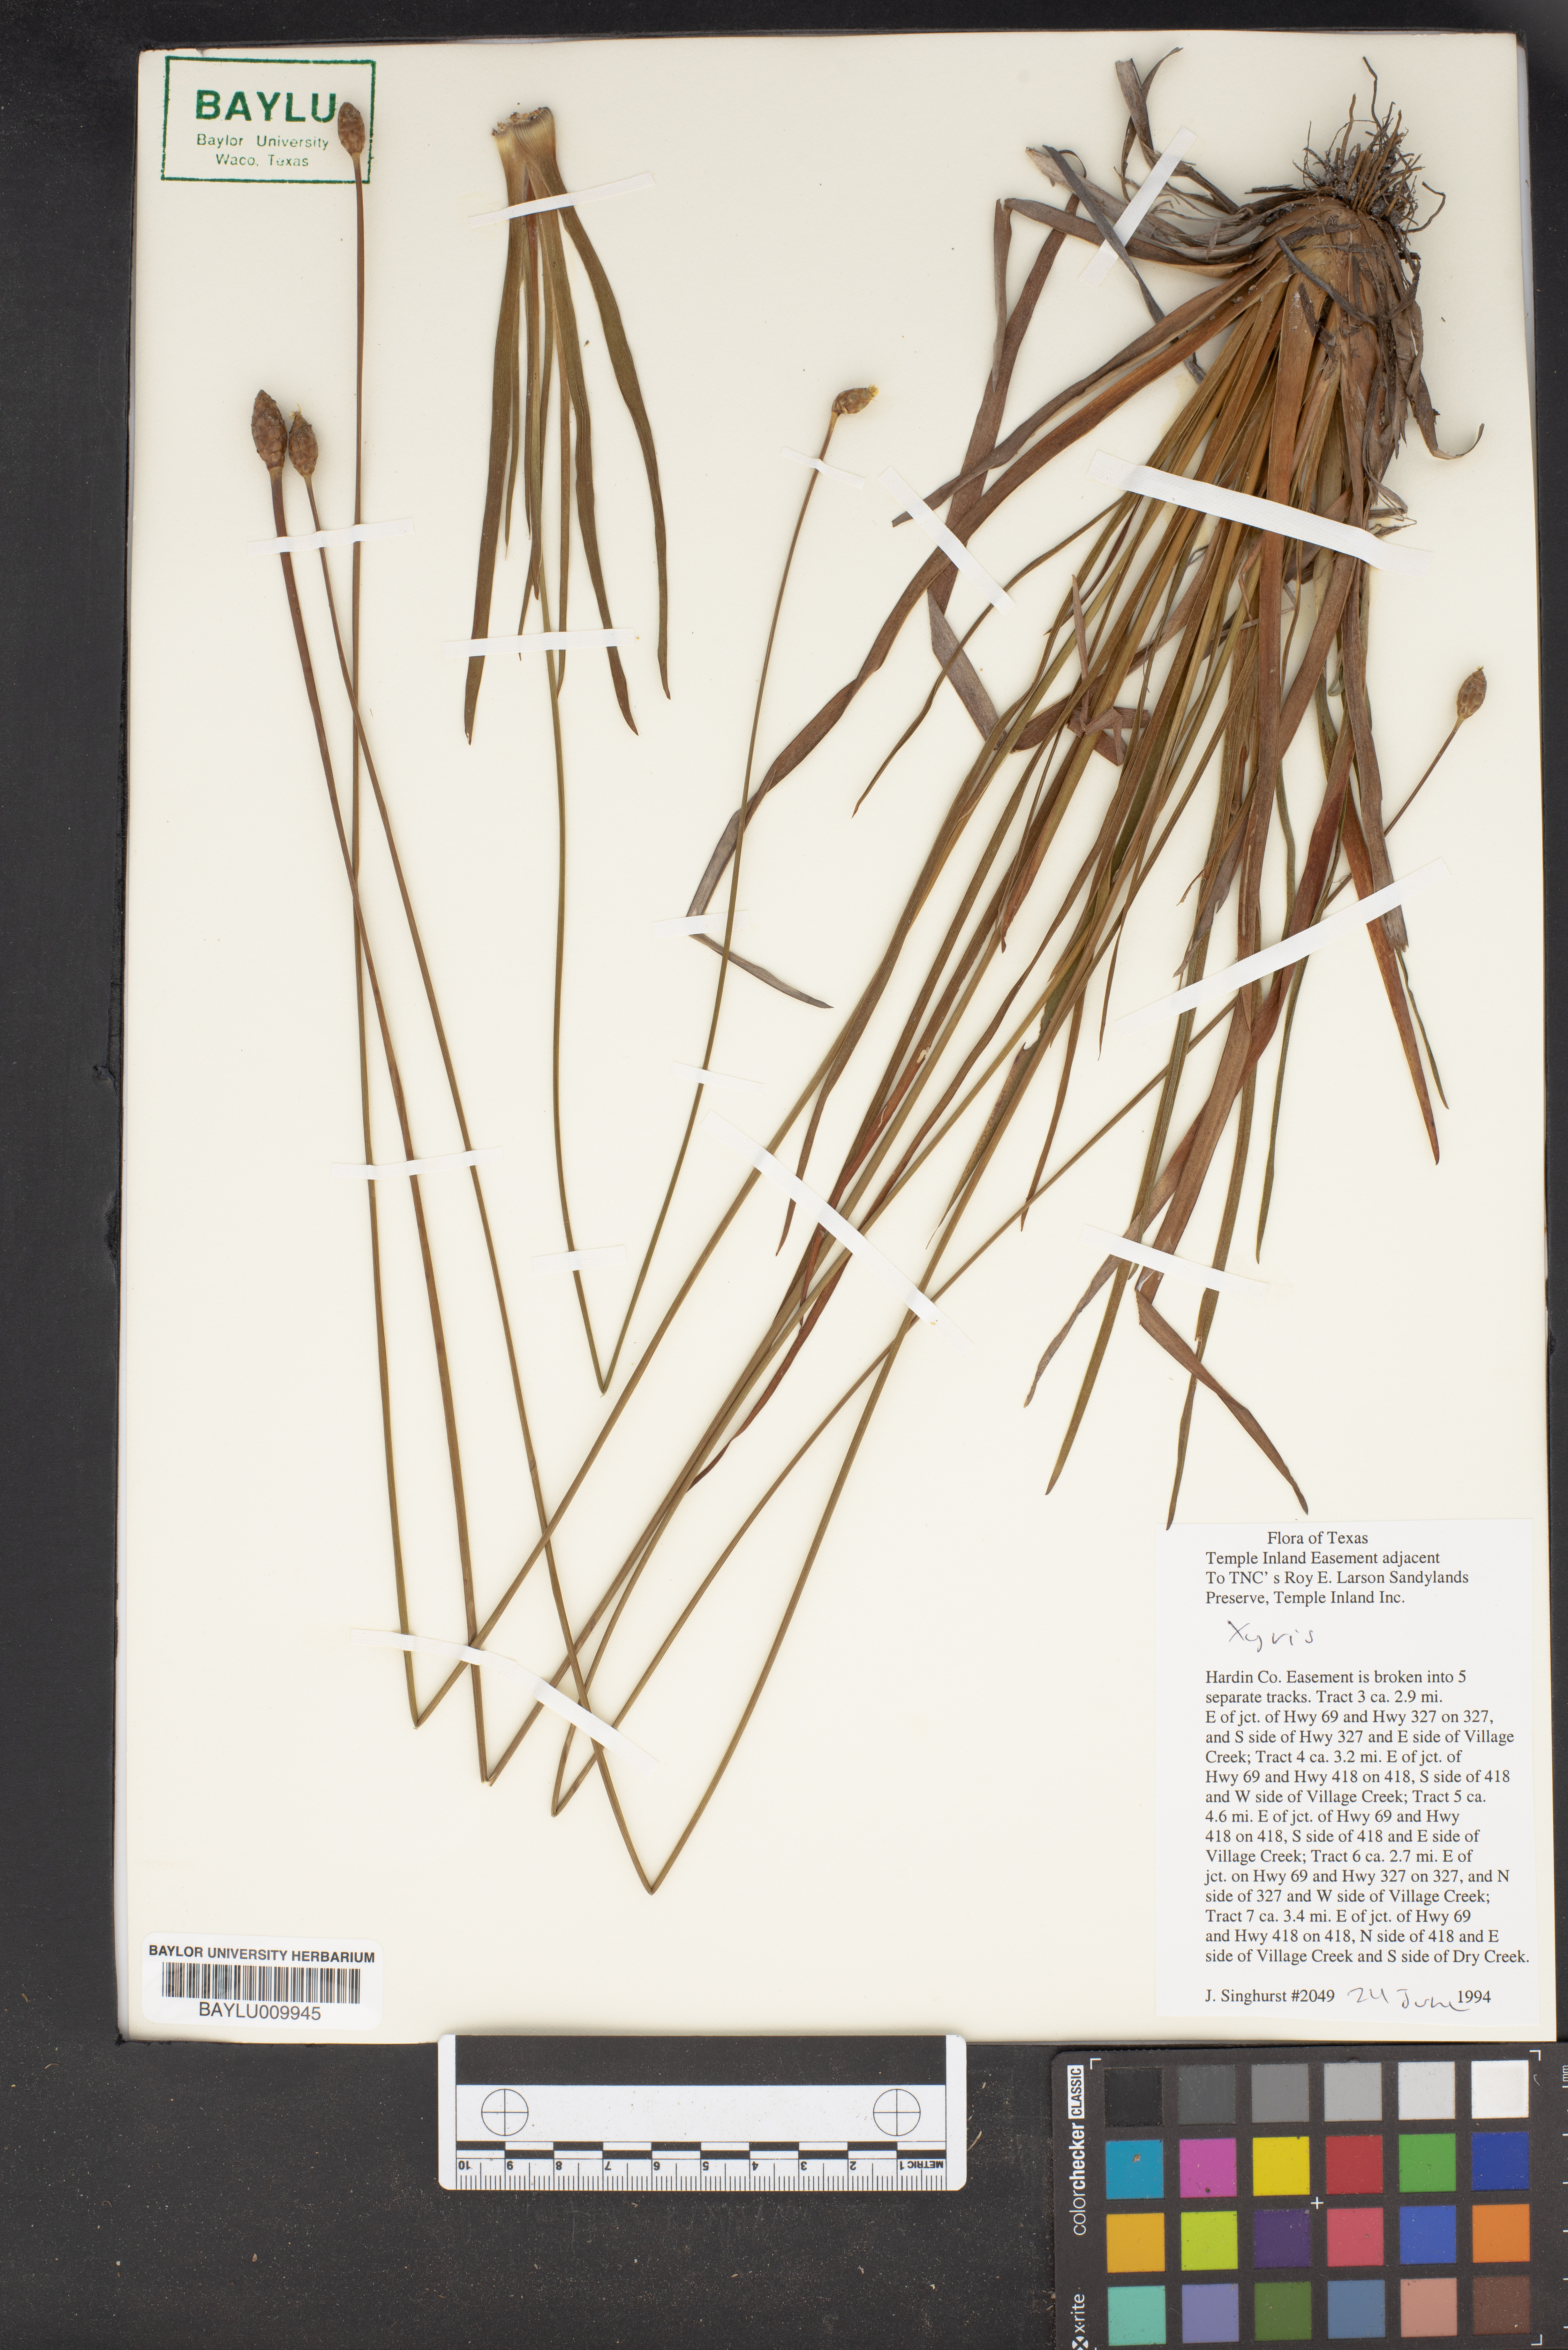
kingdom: Plantae
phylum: Tracheophyta
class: Liliopsida
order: Poales
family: Xyridaceae
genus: Xyris
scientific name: Xyris
